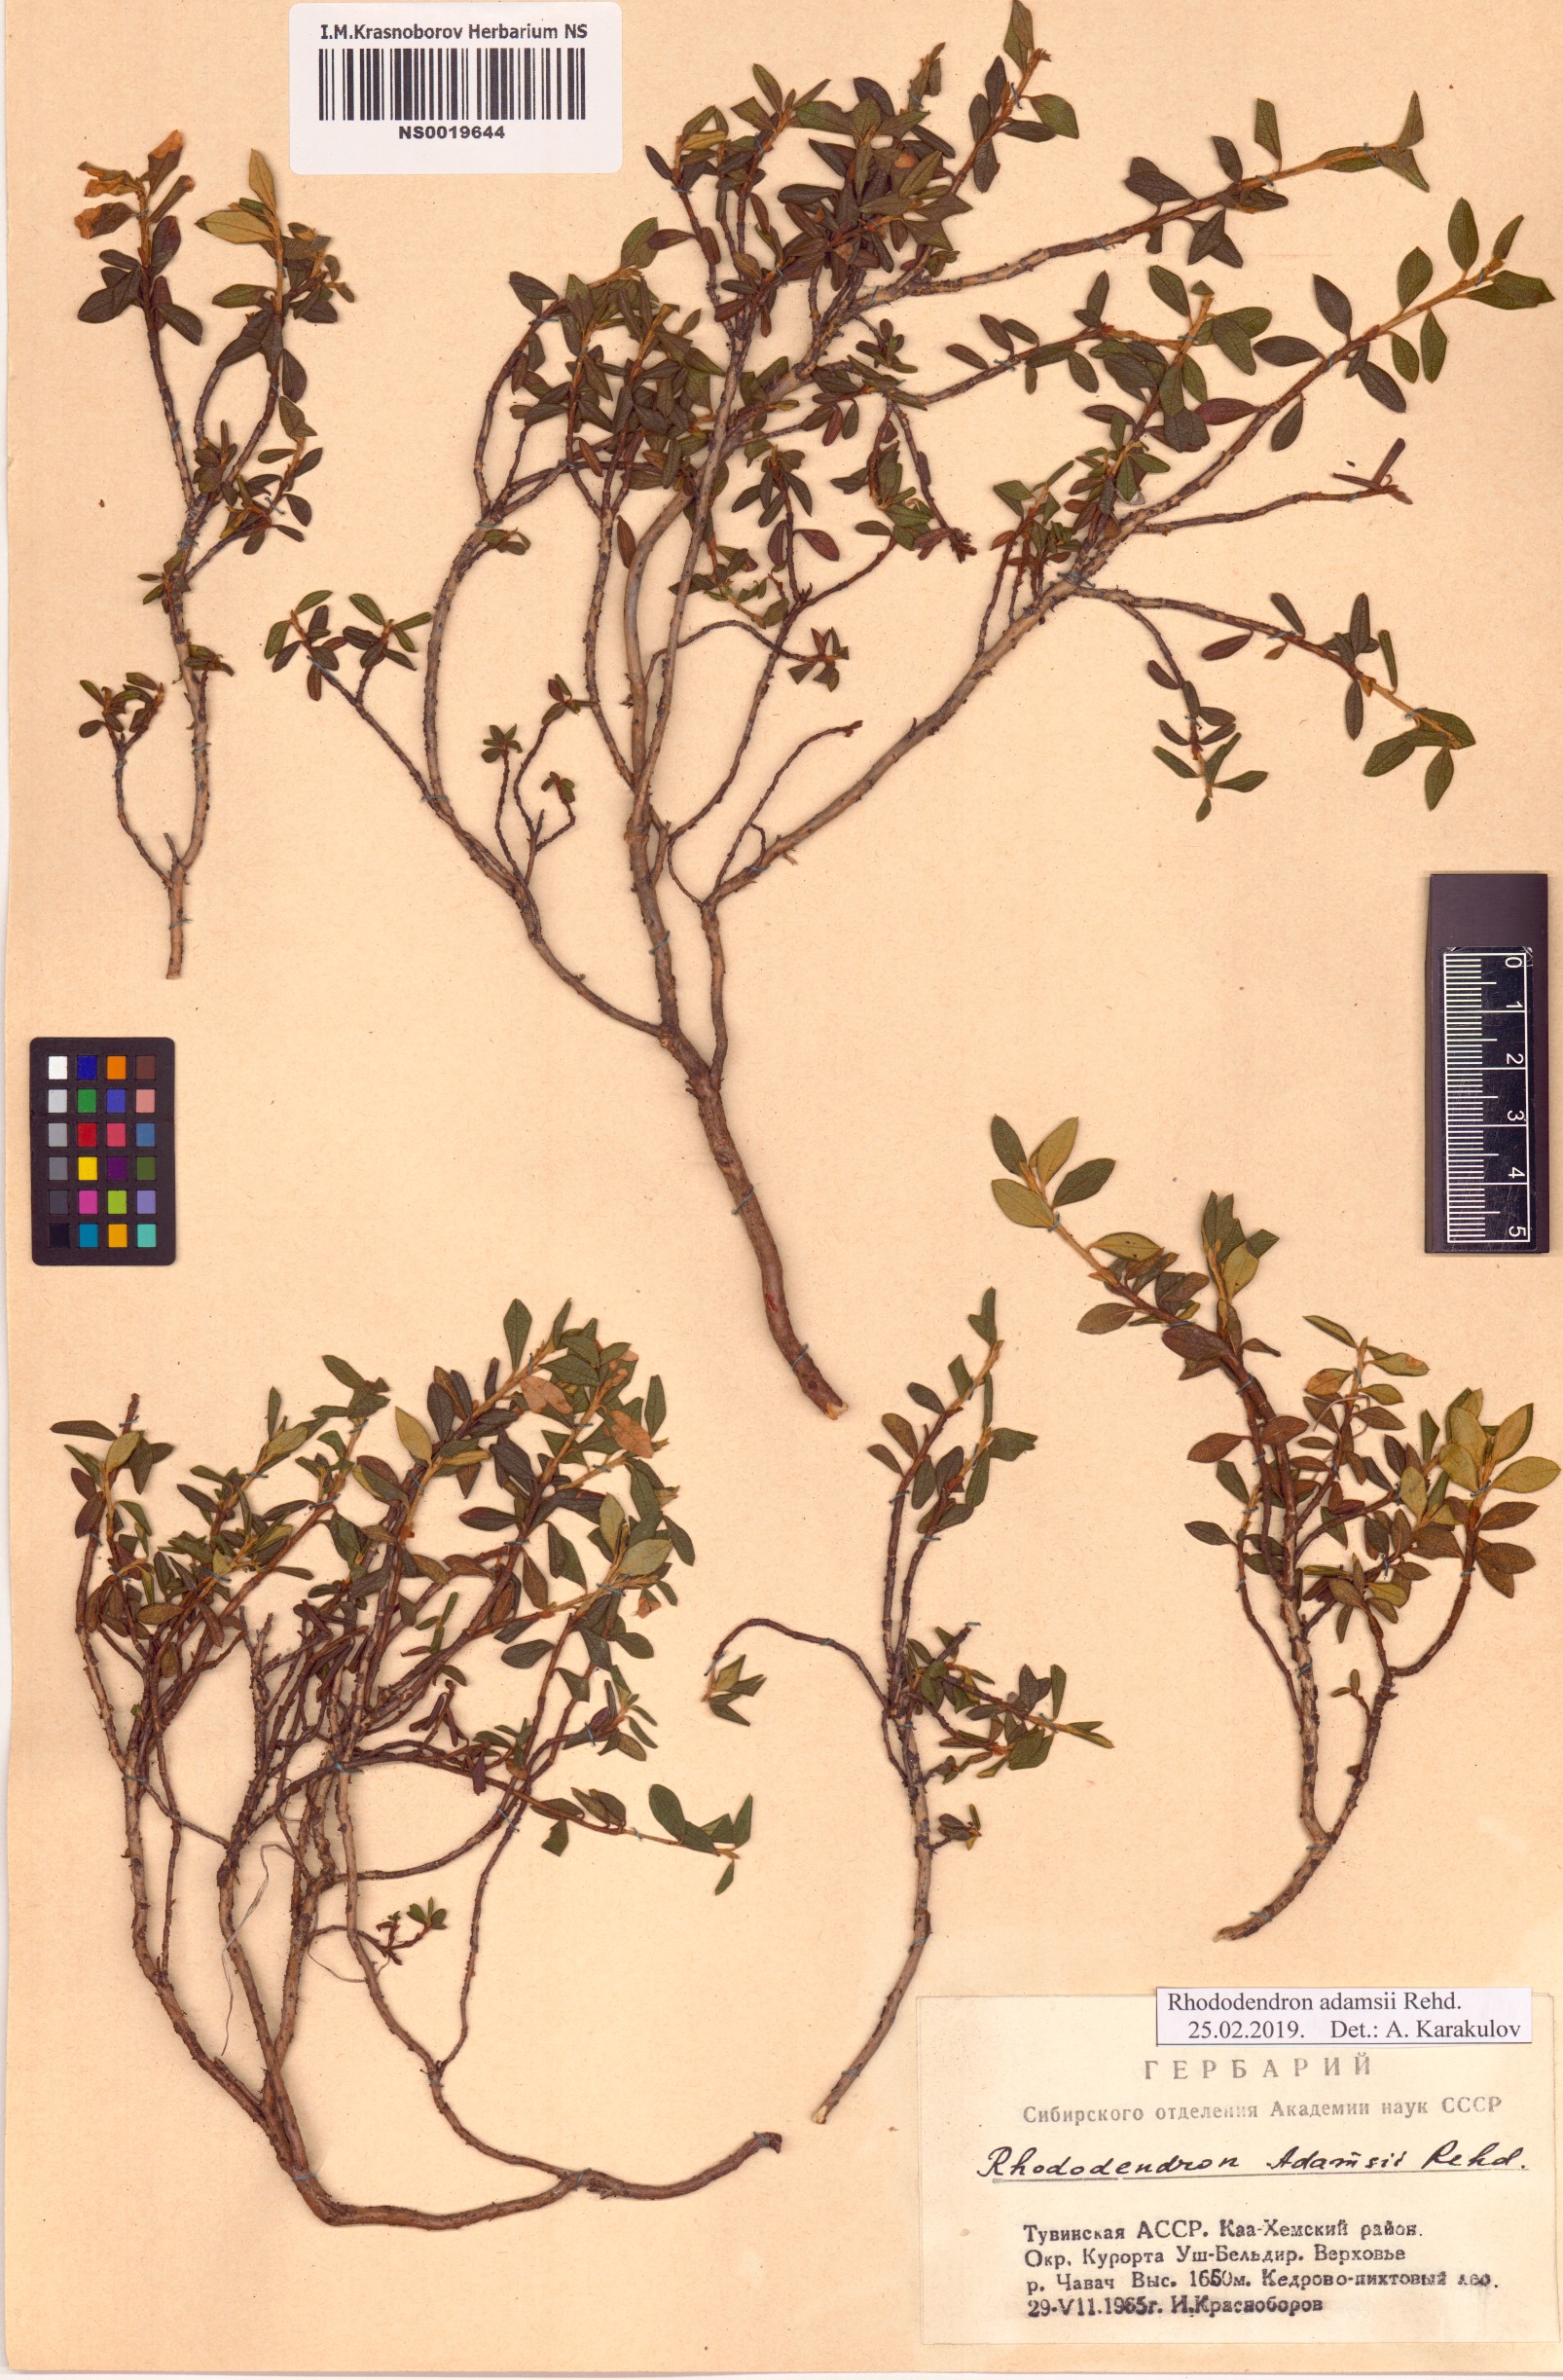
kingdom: Plantae
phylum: Tracheophyta
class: Magnoliopsida
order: Ericales
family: Ericaceae
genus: Rhododendron
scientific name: Rhododendron adamsii
